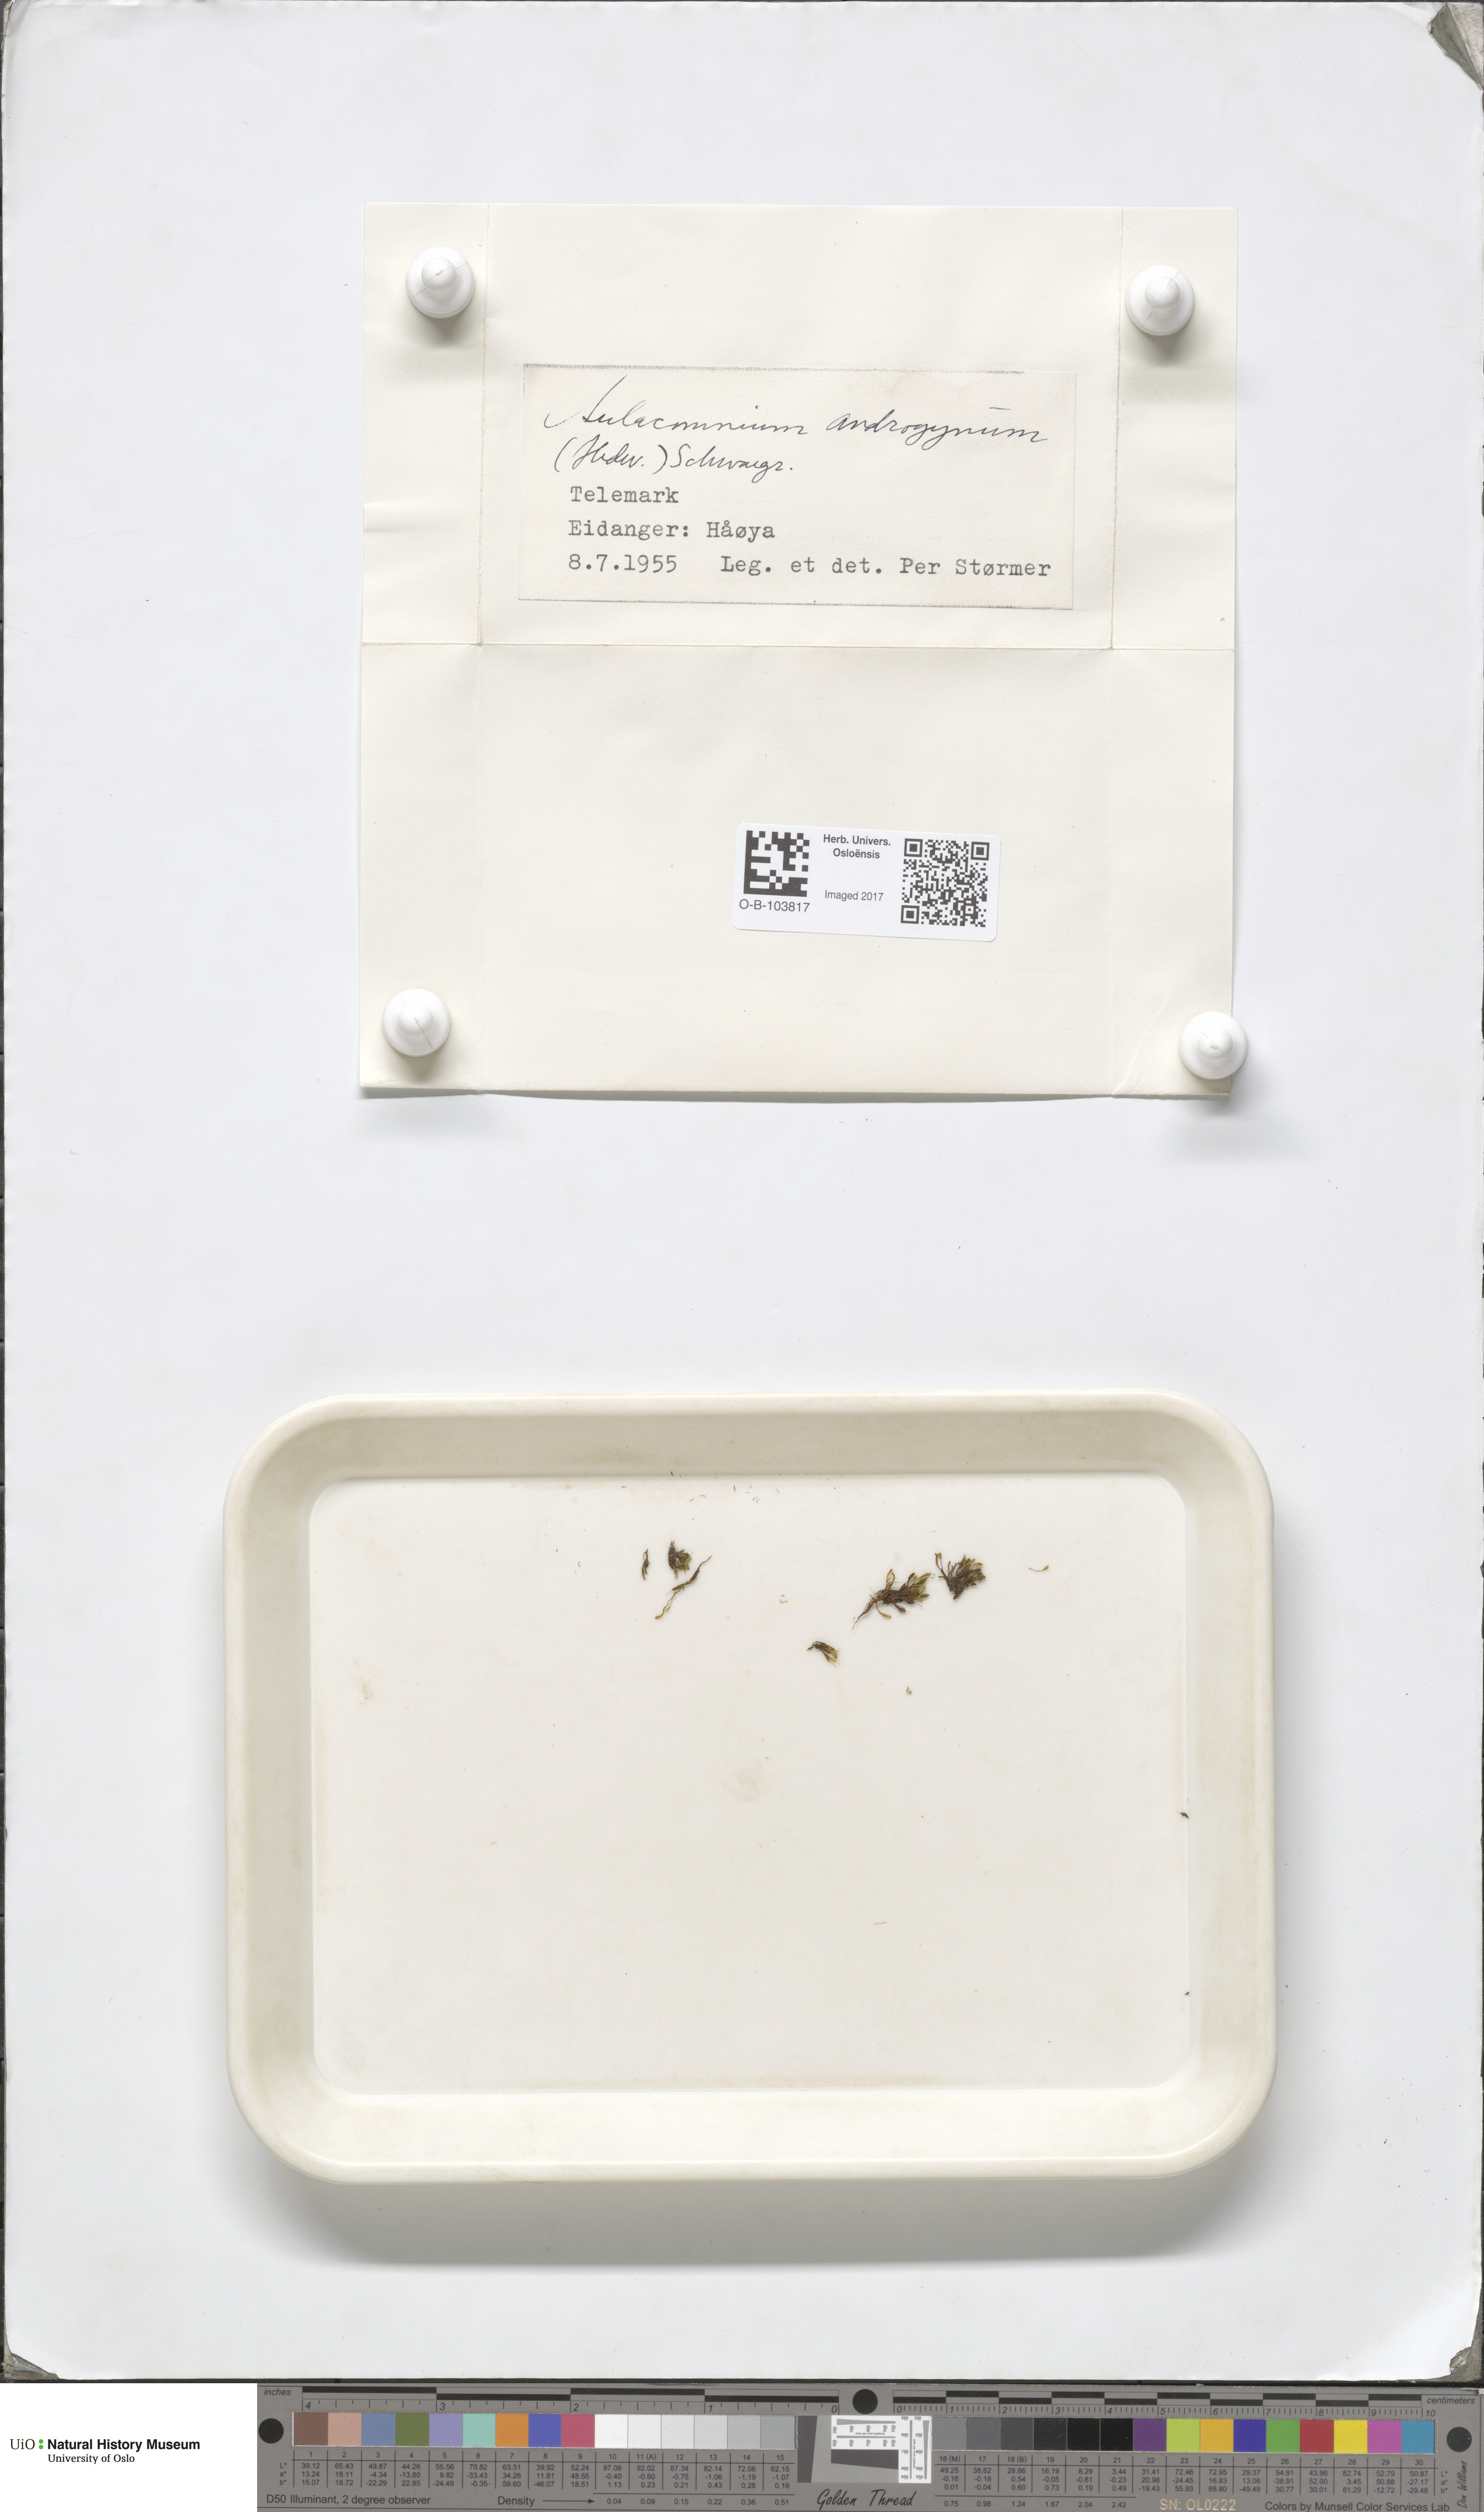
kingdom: Plantae
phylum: Bryophyta
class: Bryopsida
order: Aulacomniales
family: Aulacomniaceae
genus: Aulacomnium
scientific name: Aulacomnium androgynum
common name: Little groove moss
